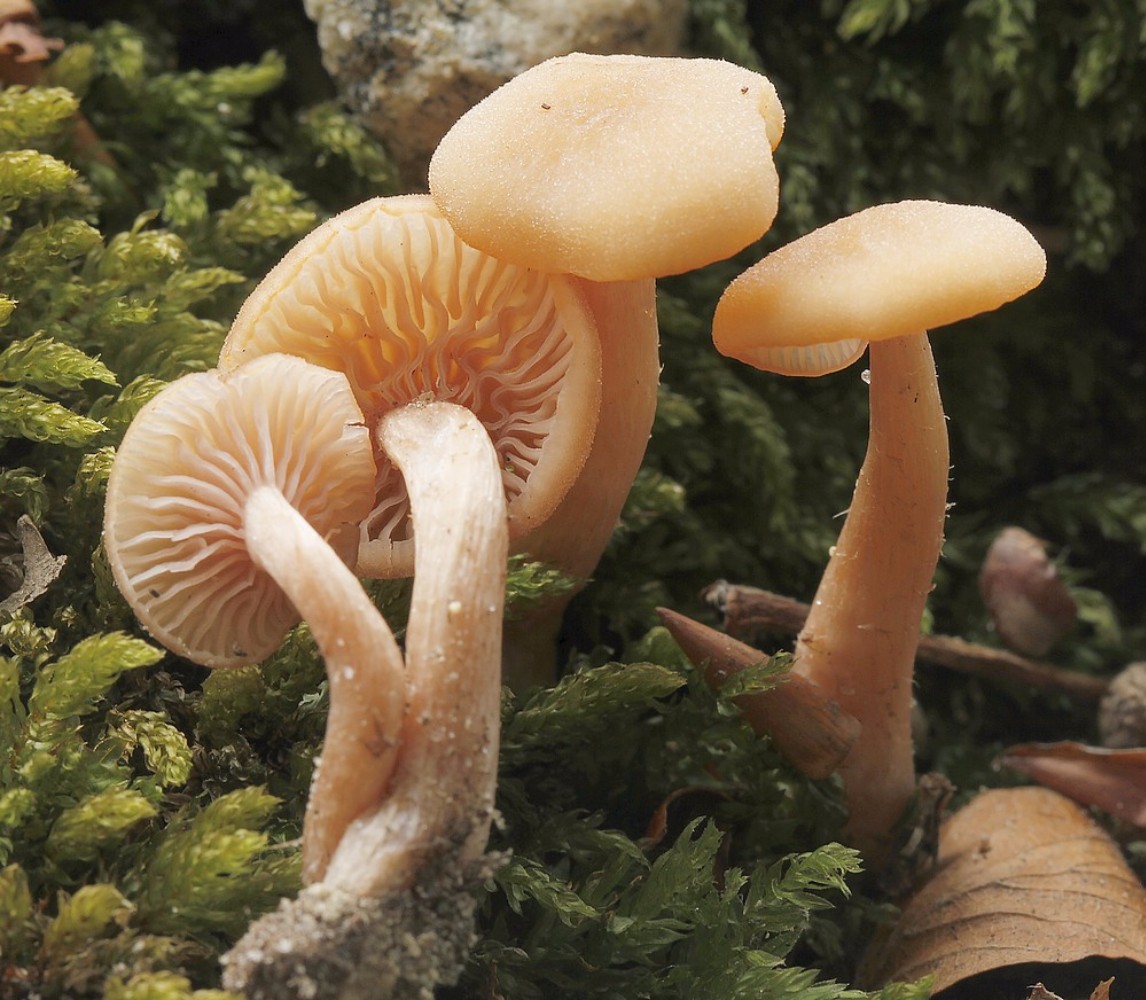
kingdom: Fungi
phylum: Basidiomycota
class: Agaricomycetes
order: Agaricales
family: Hydnangiaceae
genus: Laccaria
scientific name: Laccaria laccata
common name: rød ametysthat
